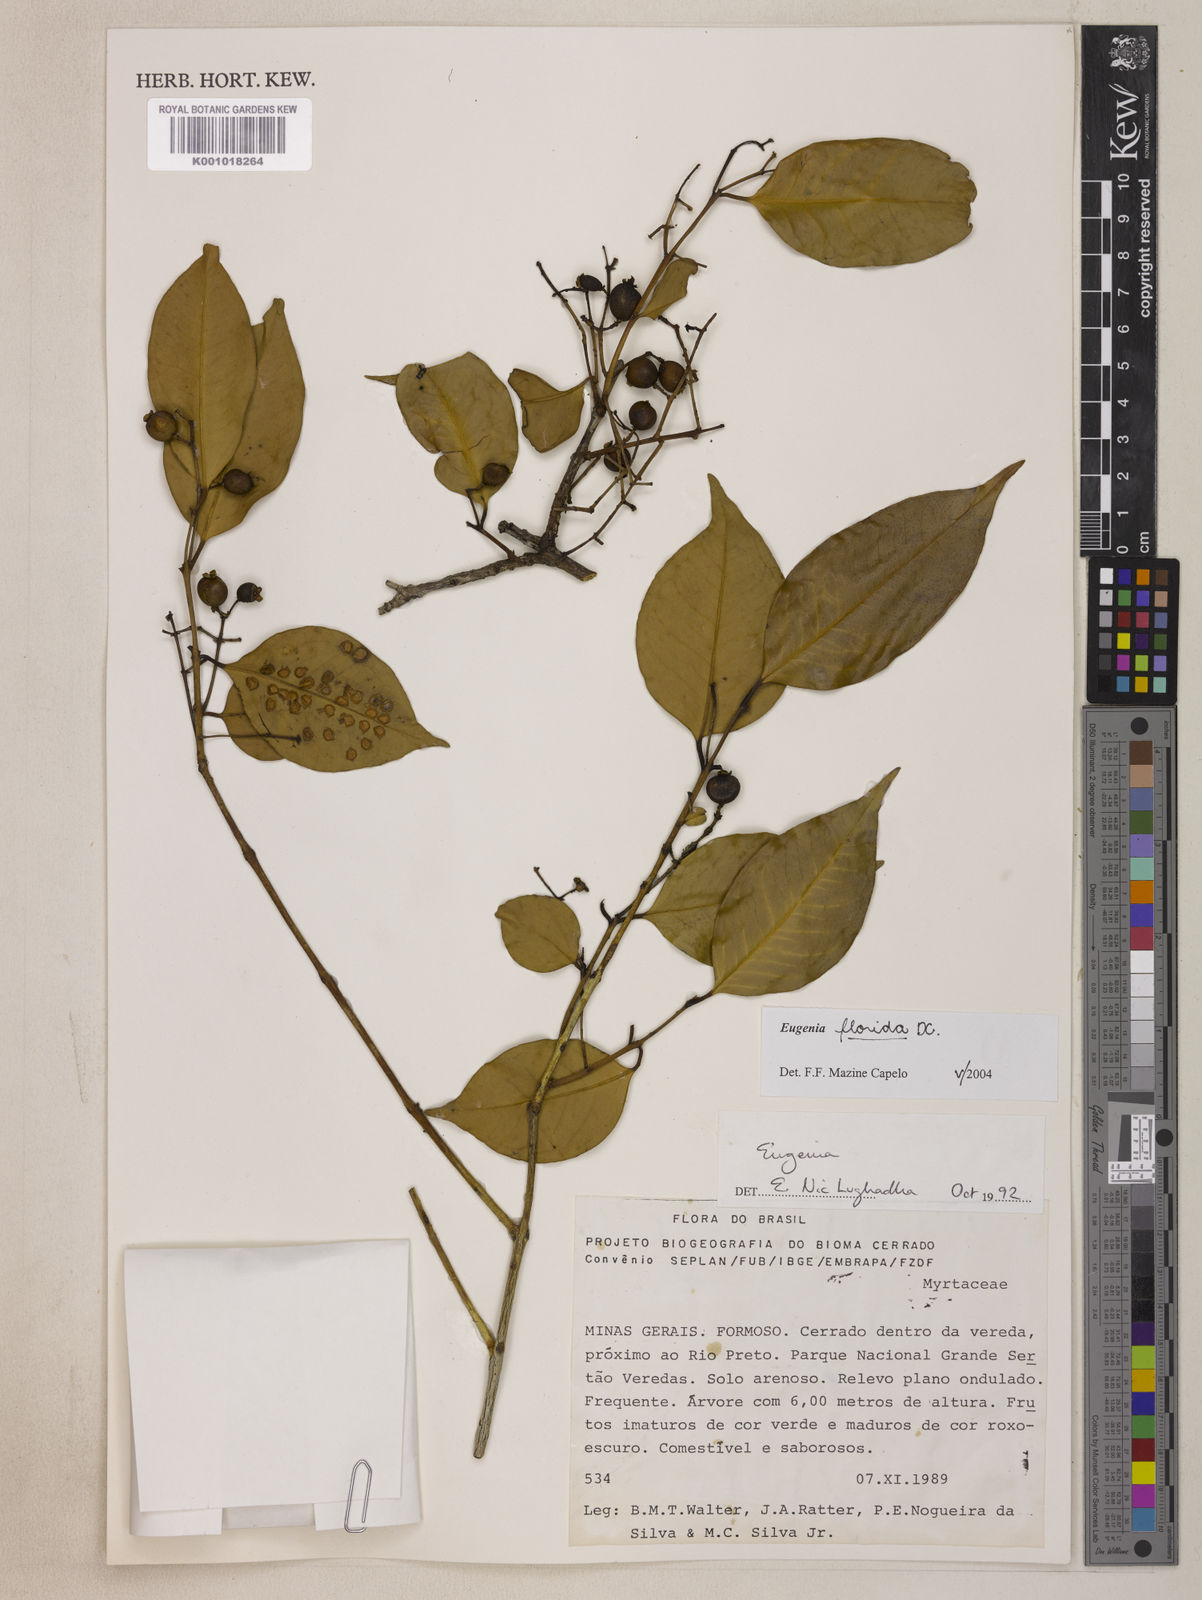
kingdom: Plantae
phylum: Tracheophyta
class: Magnoliopsida
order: Myrtales
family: Myrtaceae
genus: Eugenia
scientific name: Eugenia florida
